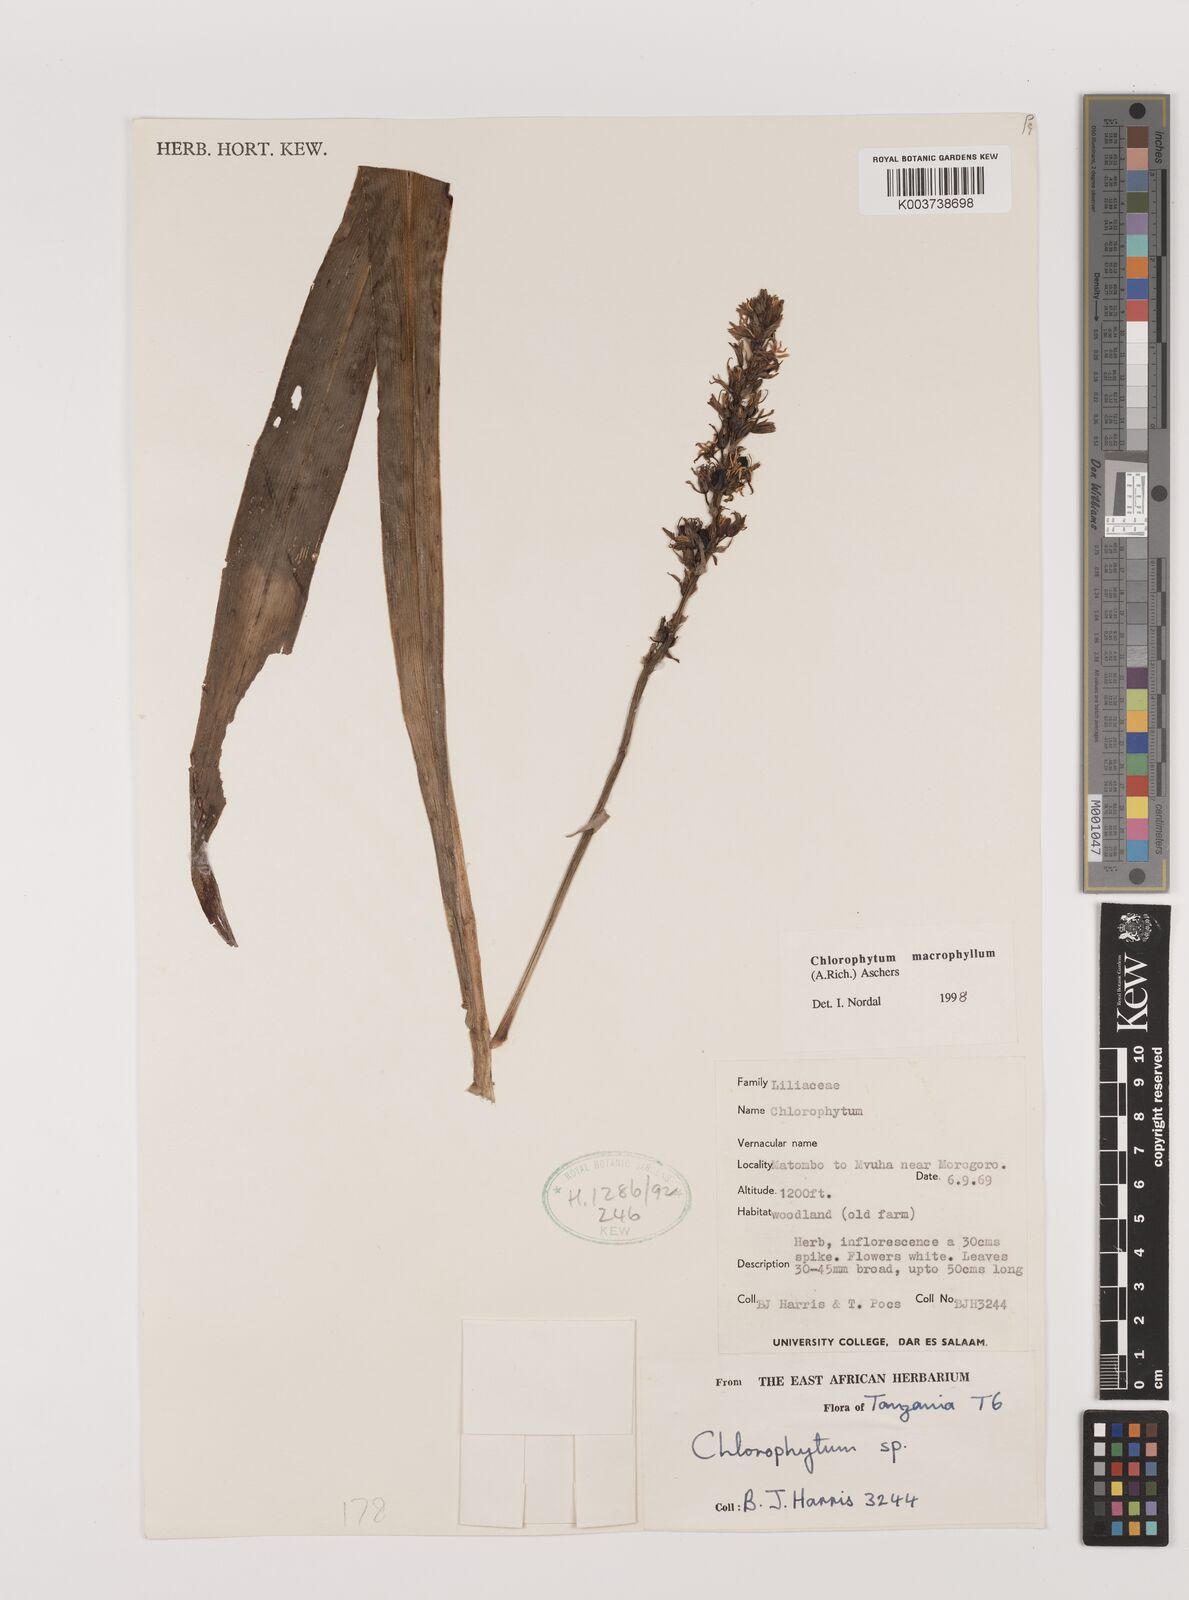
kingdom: Plantae
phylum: Tracheophyta
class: Liliopsida
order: Asparagales
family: Asparagaceae
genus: Chlorophytum
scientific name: Chlorophytum macrophyllum
